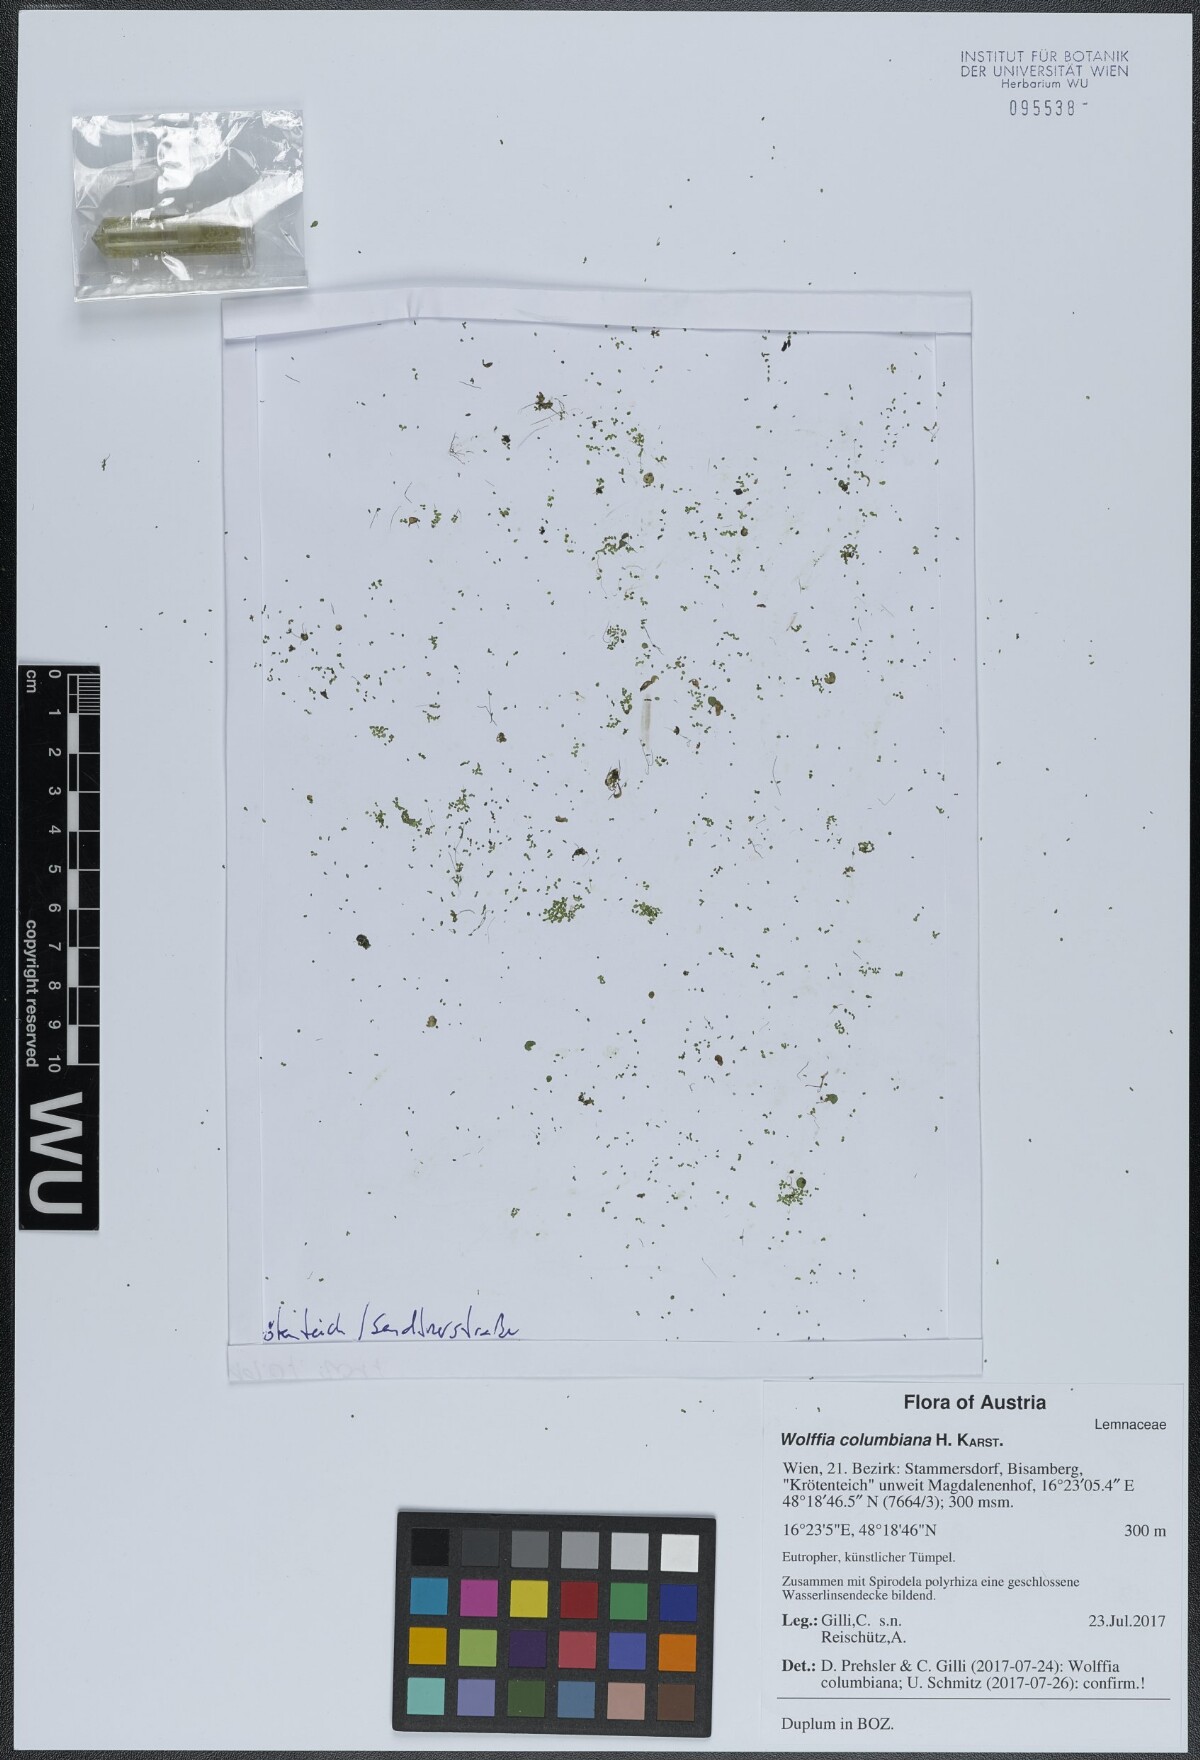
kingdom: Plantae
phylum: Tracheophyta
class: Liliopsida
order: Alismatales
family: Araceae
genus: Wolffia
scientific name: Wolffia columbiana
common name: Columbia watermeal
